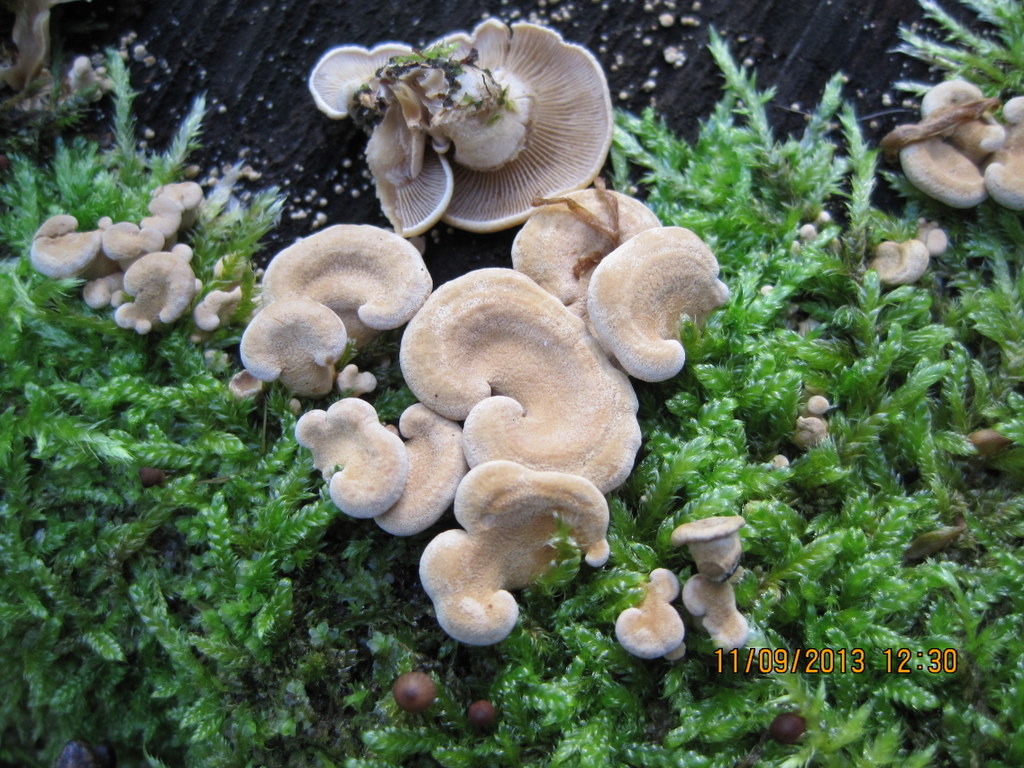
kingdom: Fungi
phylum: Basidiomycota
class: Agaricomycetes
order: Agaricales
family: Mycenaceae
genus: Panellus
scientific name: Panellus stipticus
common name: kliddet epaulethat
